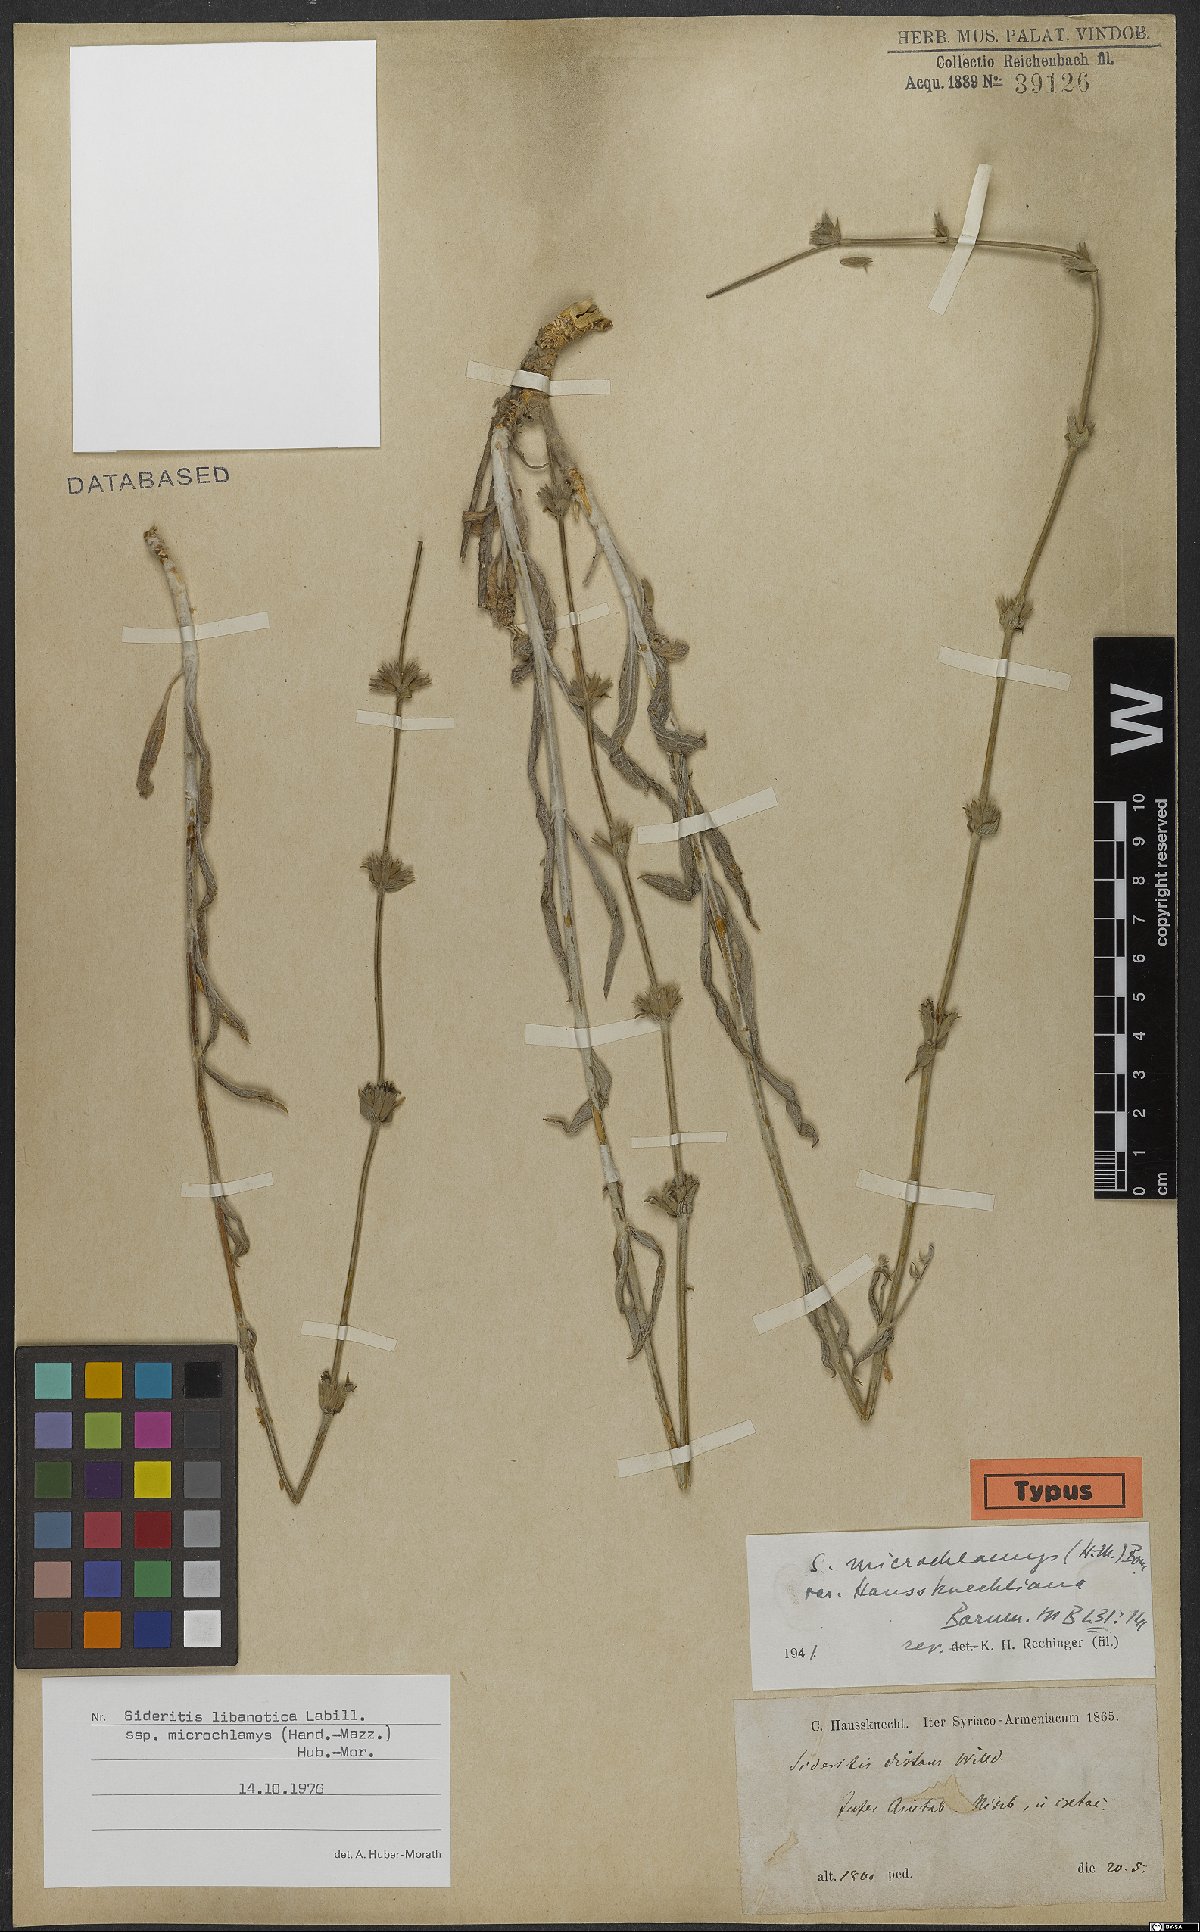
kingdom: Plantae
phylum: Tracheophyta
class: Magnoliopsida
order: Lamiales
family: Lamiaceae
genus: Sideritis
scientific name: Sideritis libanotica
